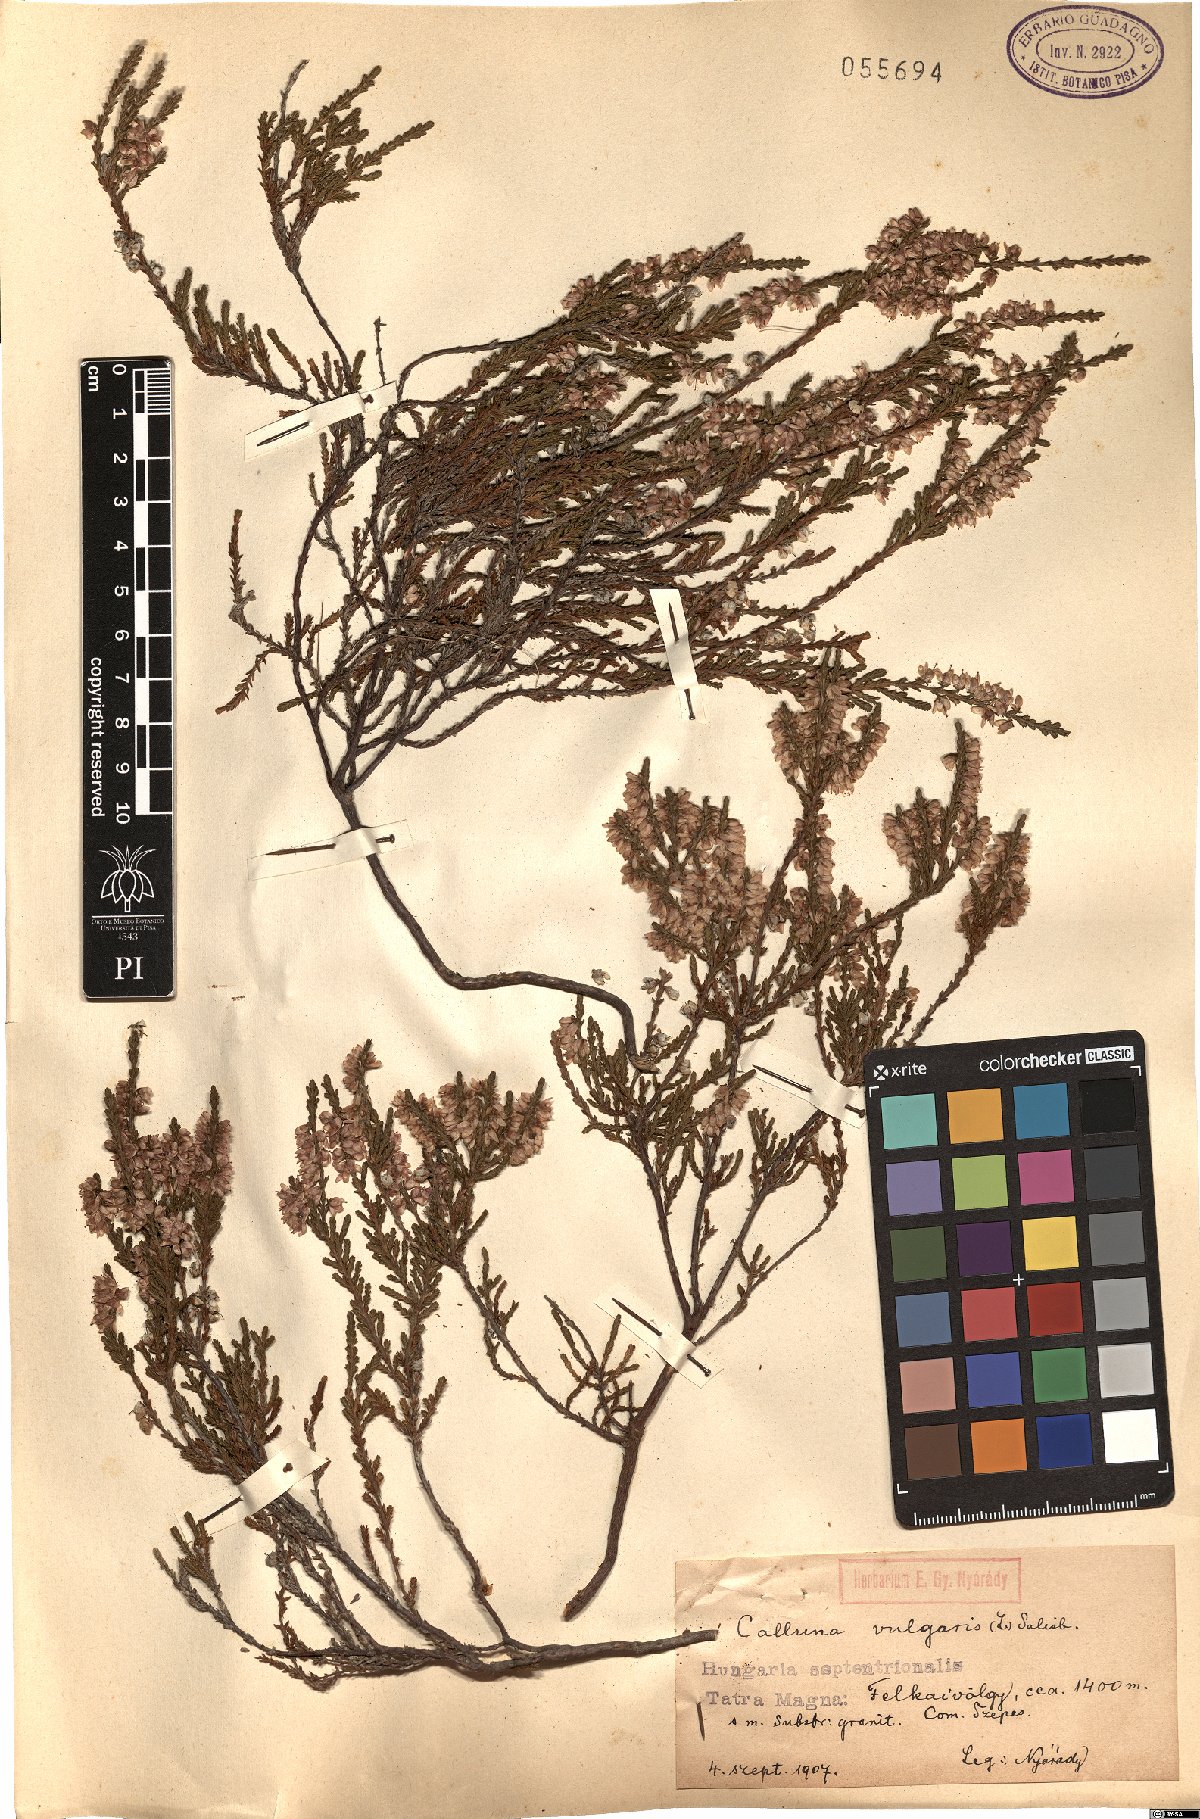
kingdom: Plantae
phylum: Tracheophyta
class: Magnoliopsida
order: Ericales
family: Ericaceae
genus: Calluna
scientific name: Calluna vulgaris
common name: Heather
